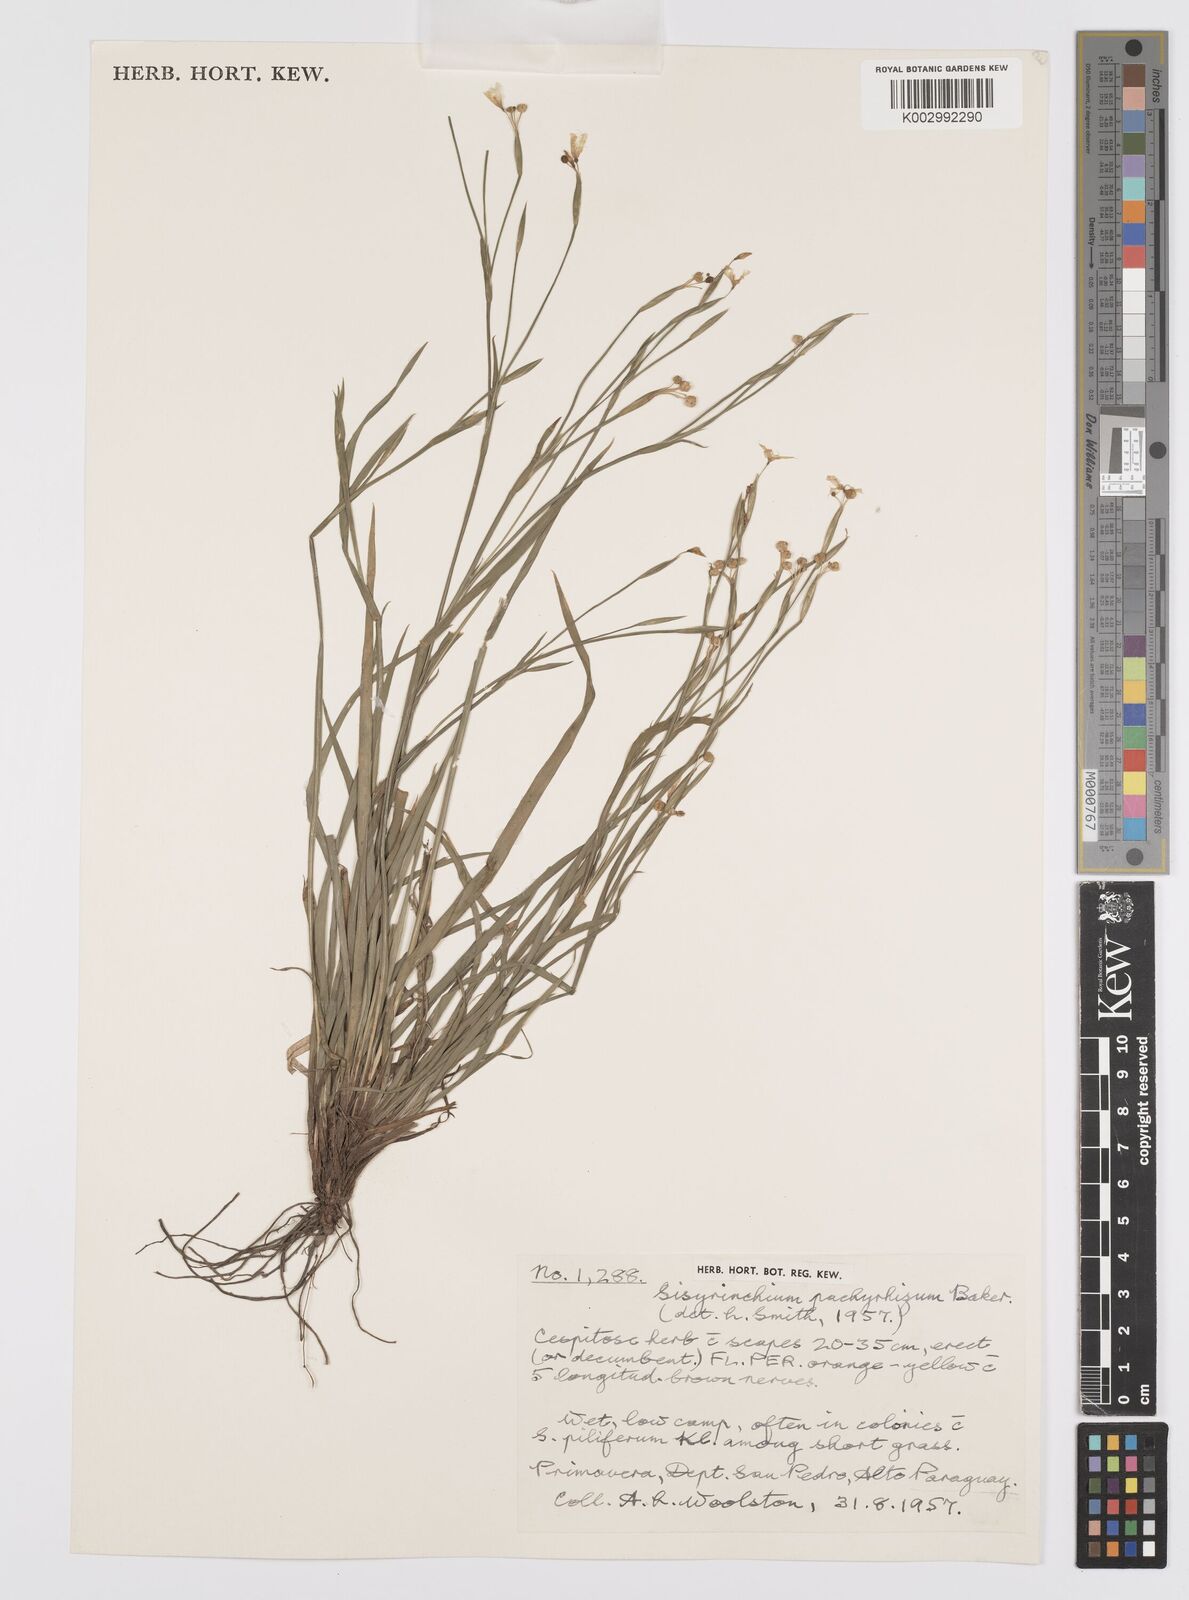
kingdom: Plantae
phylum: Tracheophyta
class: Liliopsida
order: Asparagales
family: Iridaceae
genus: Sisyrinchium
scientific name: Sisyrinchium pachyrhizum
